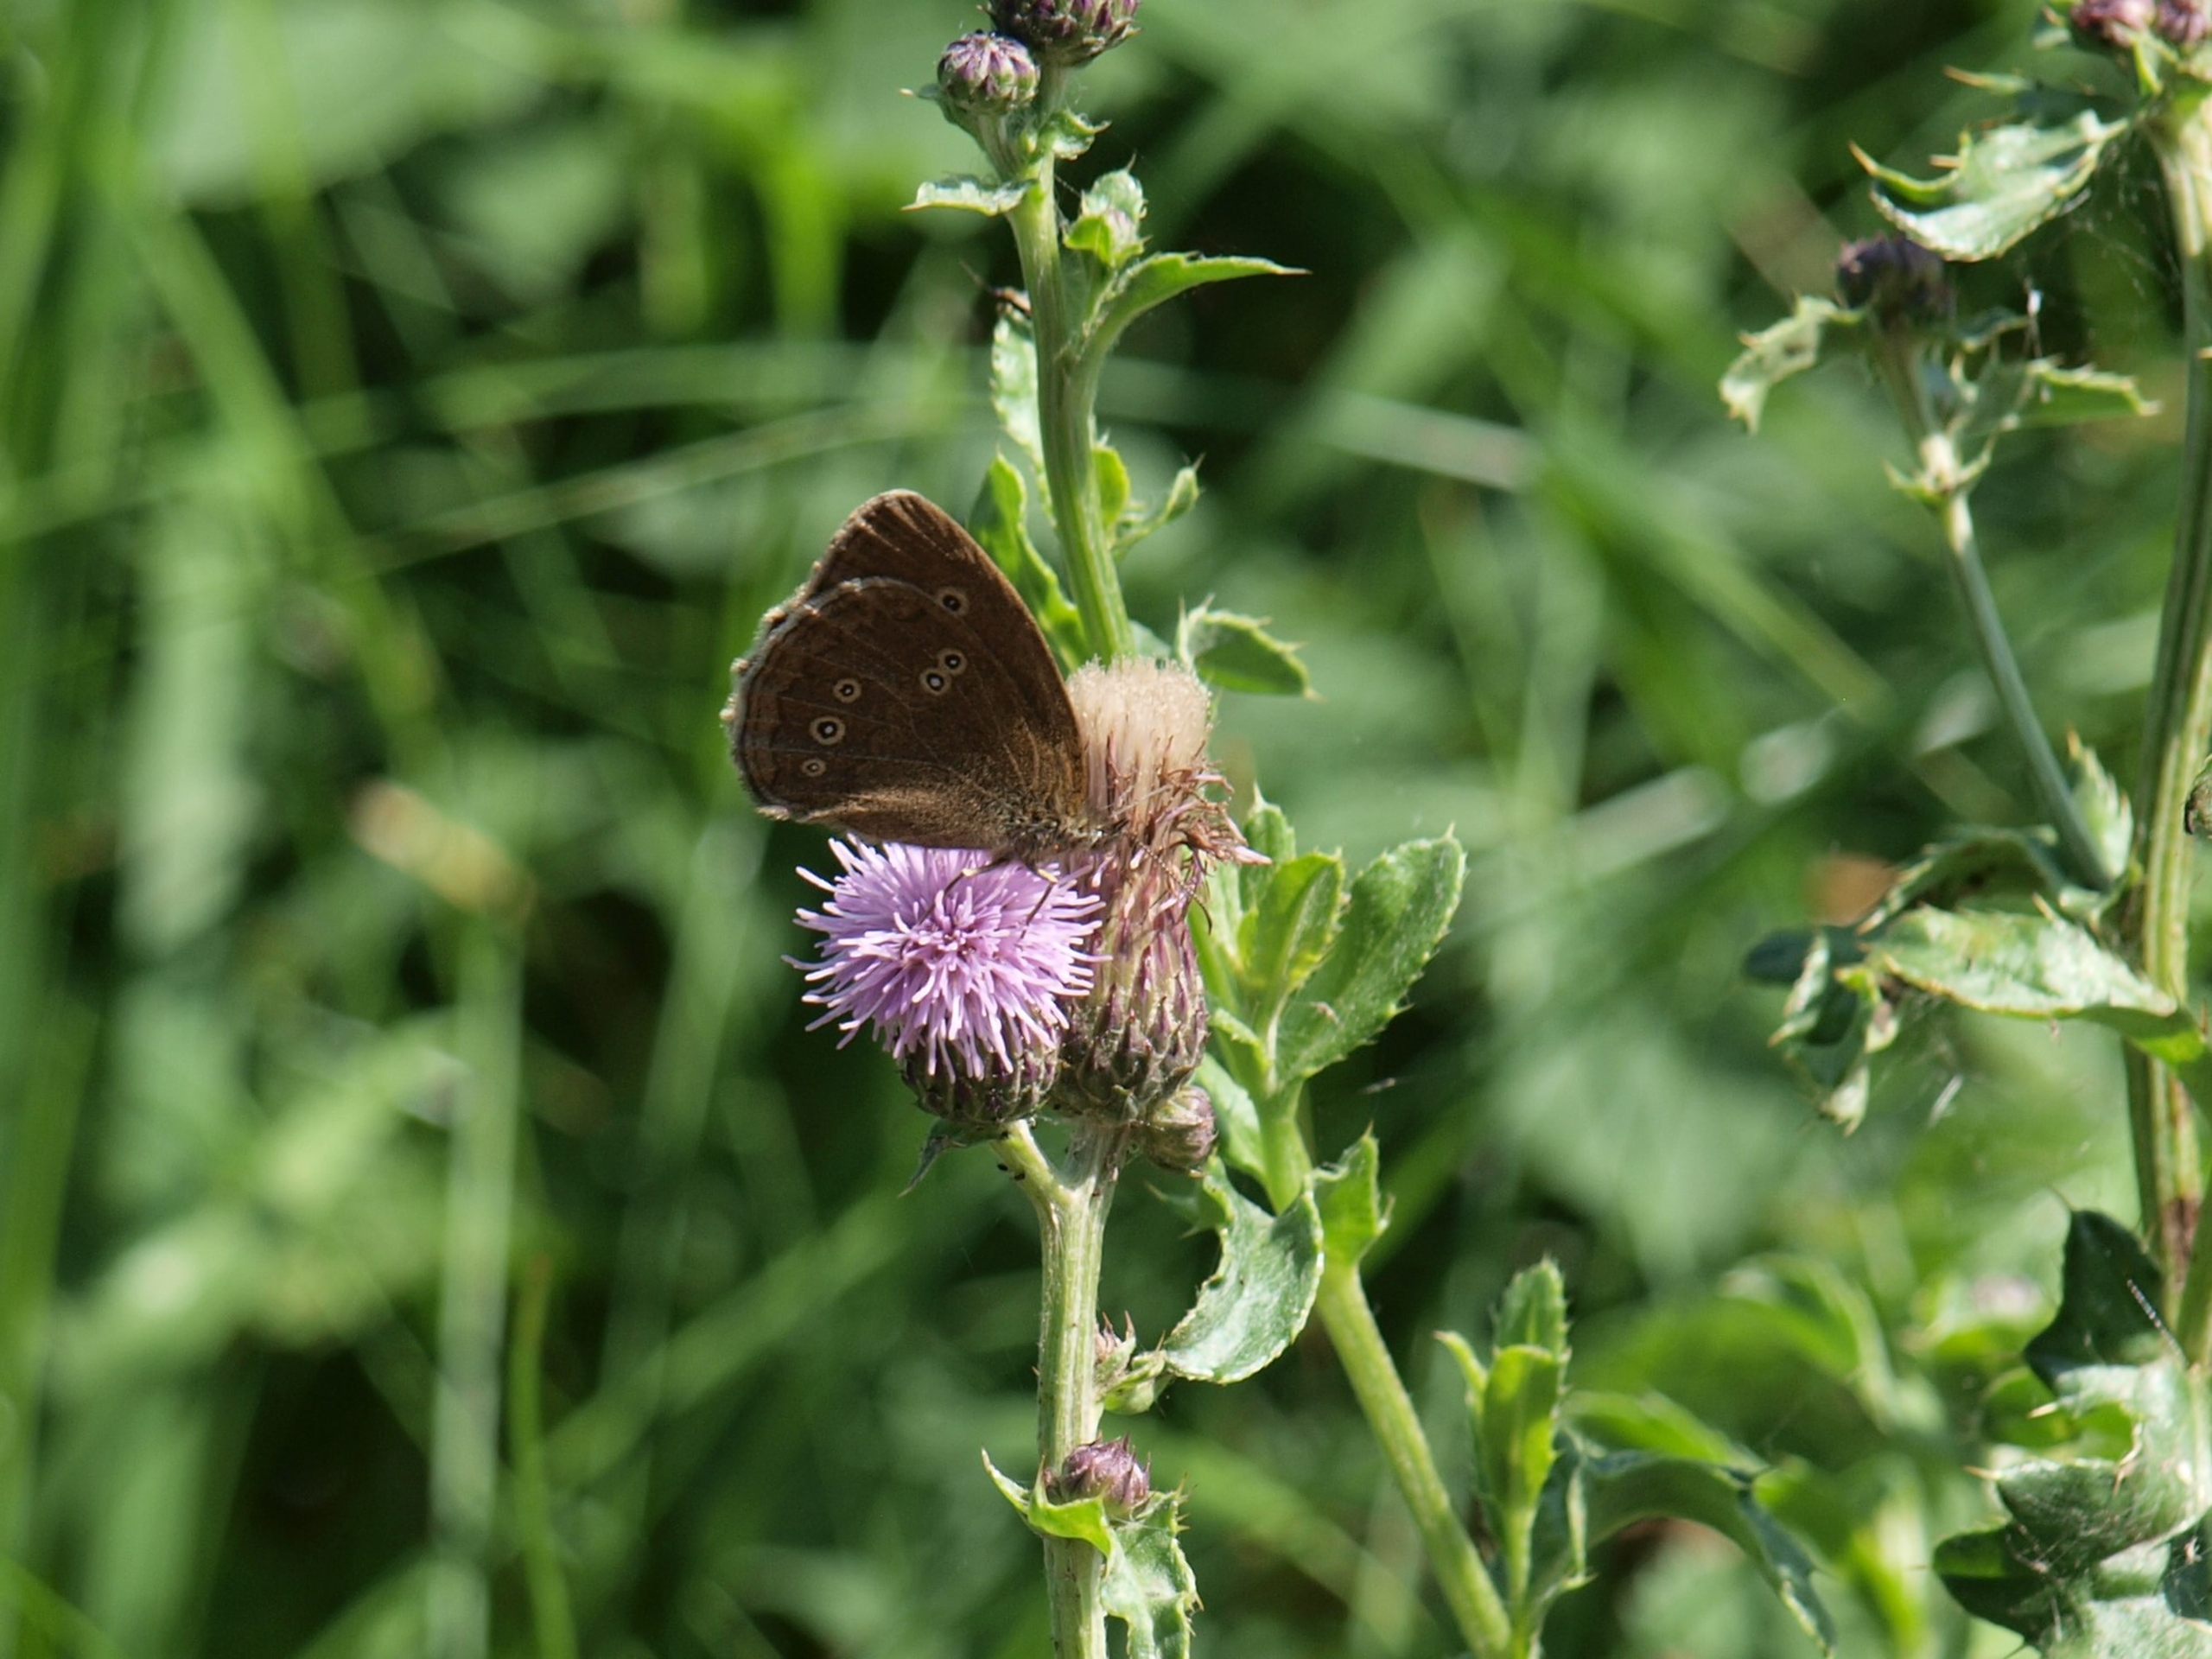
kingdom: Animalia
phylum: Arthropoda
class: Insecta
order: Lepidoptera
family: Nymphalidae
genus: Aphantopus
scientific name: Aphantopus hyperantus
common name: Engrandøje
